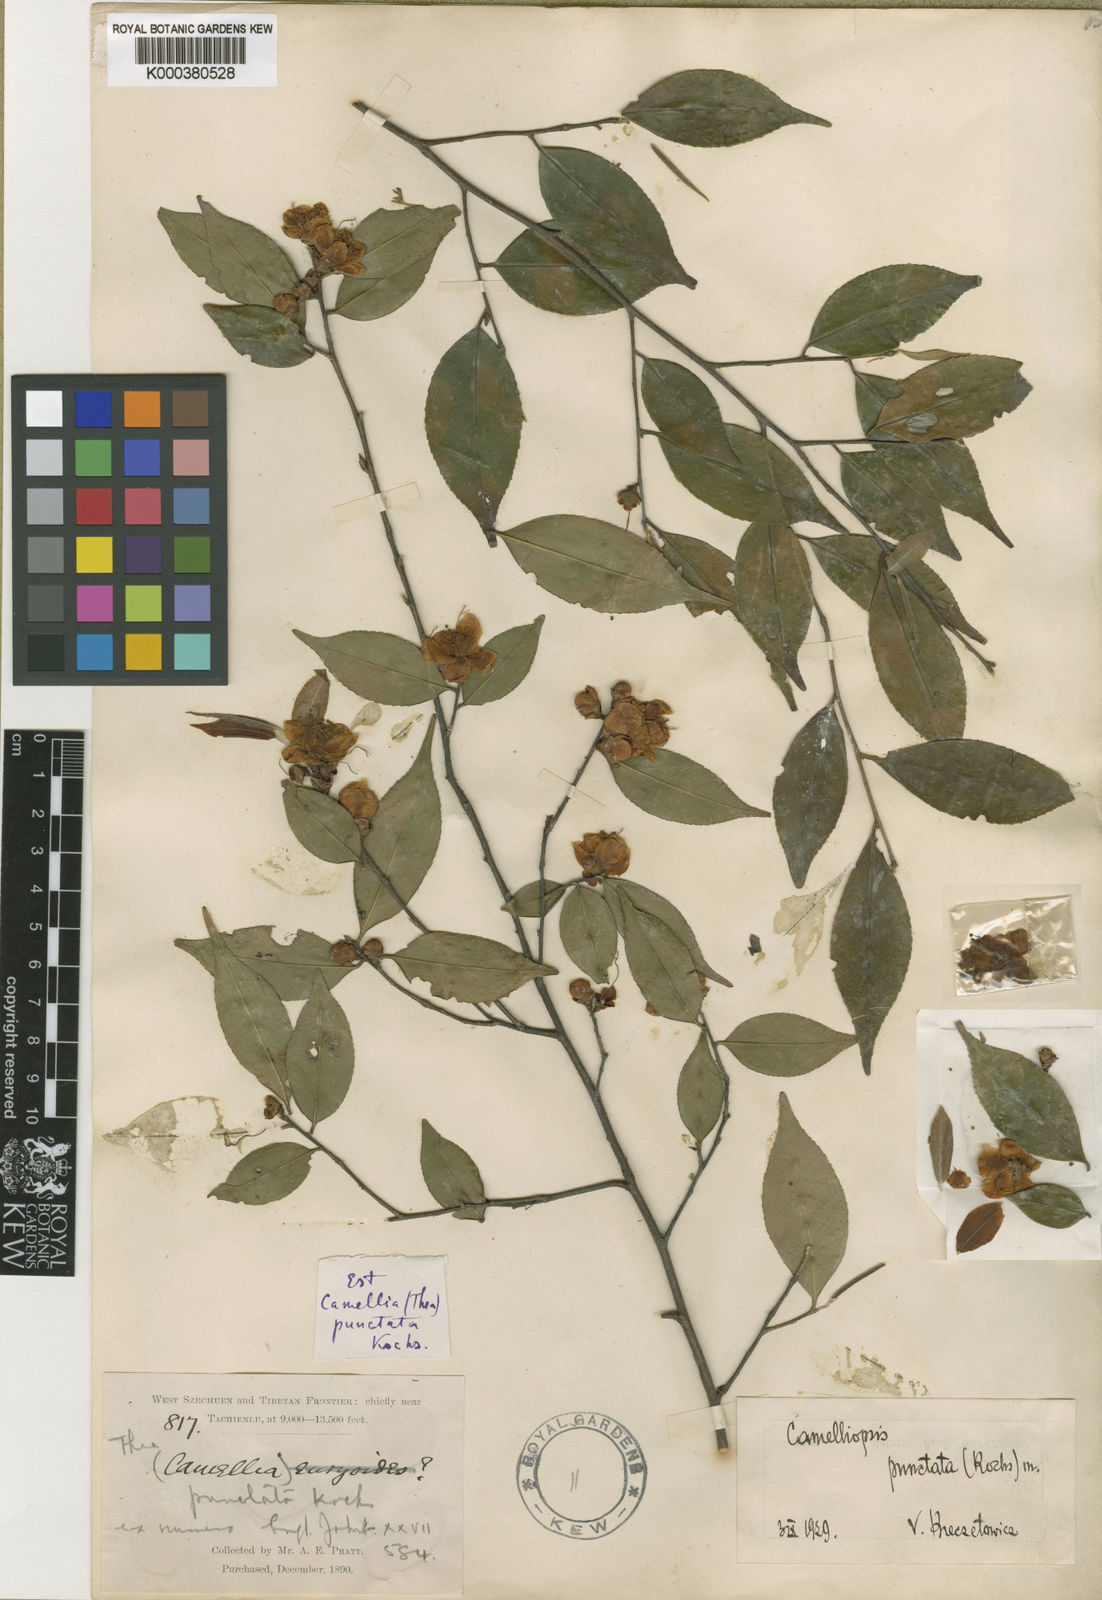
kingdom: Plantae
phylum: Tracheophyta
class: Magnoliopsida
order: Ericales
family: Theaceae
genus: Camellia
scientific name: Camellia punctata
